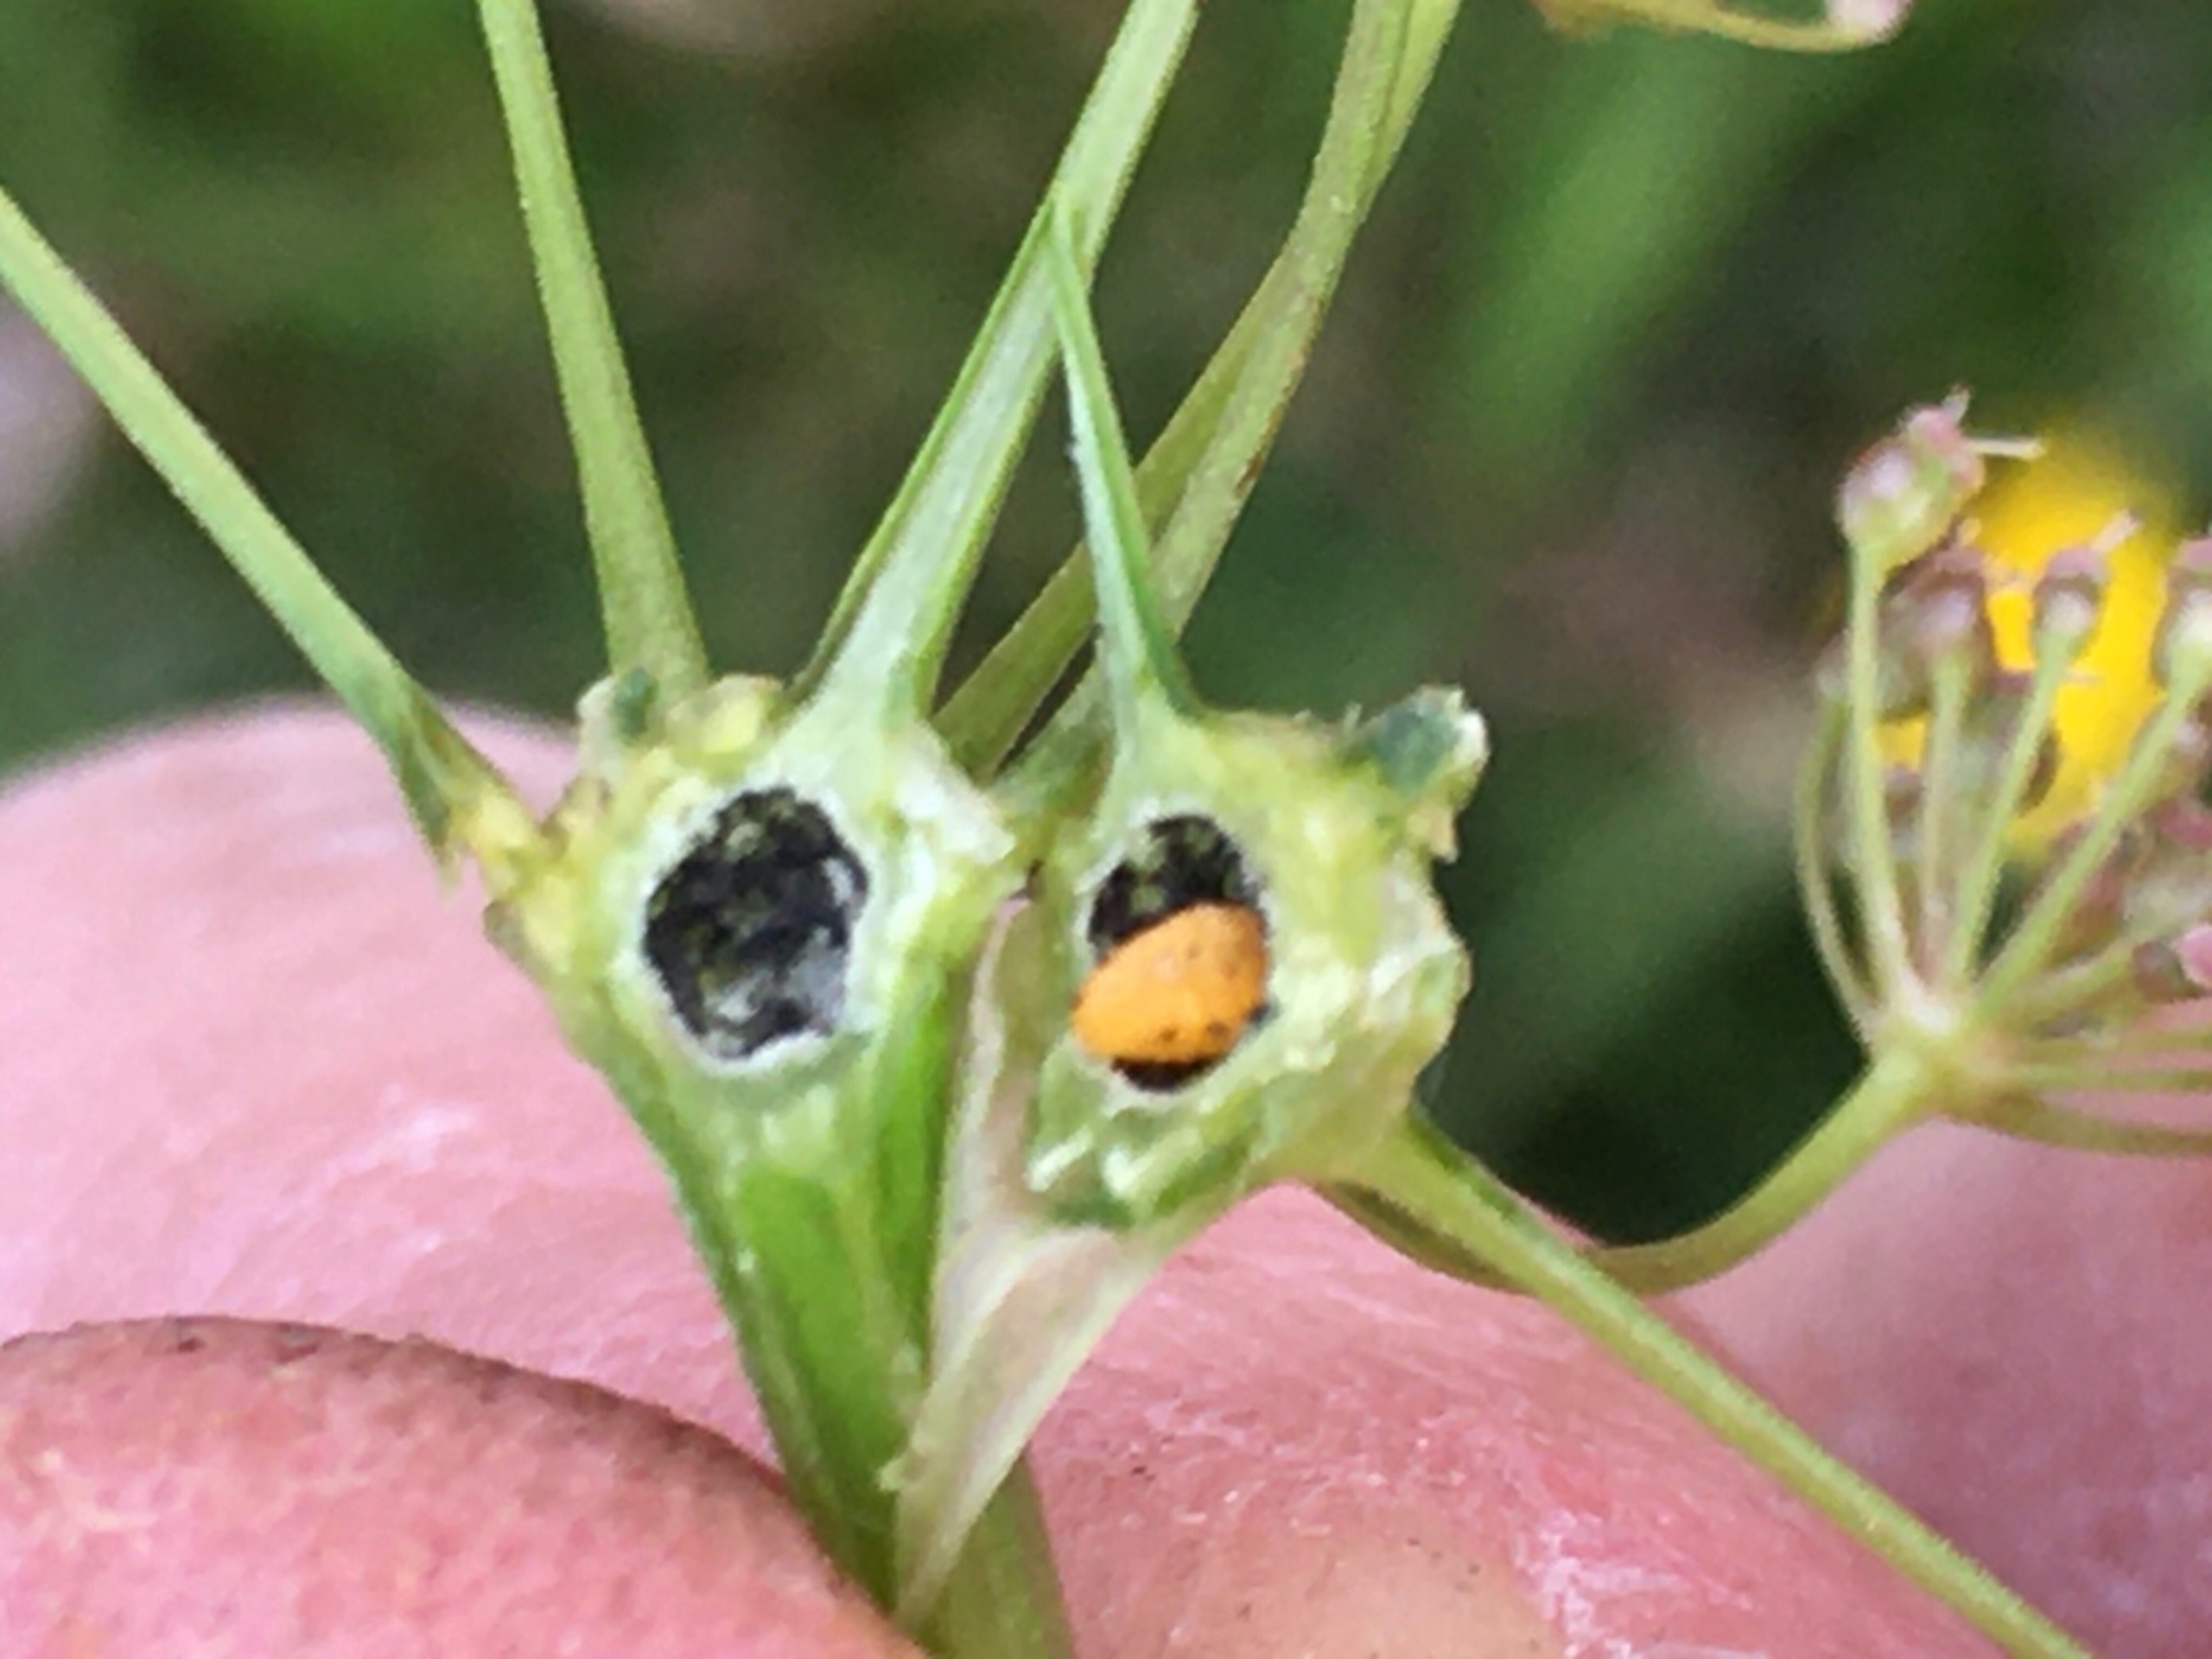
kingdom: Animalia
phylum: Arthropoda
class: Insecta
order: Diptera
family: Cecidomyiidae
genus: Lasioptera
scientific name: Lasioptera carophila
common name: Skærmgalmyg
